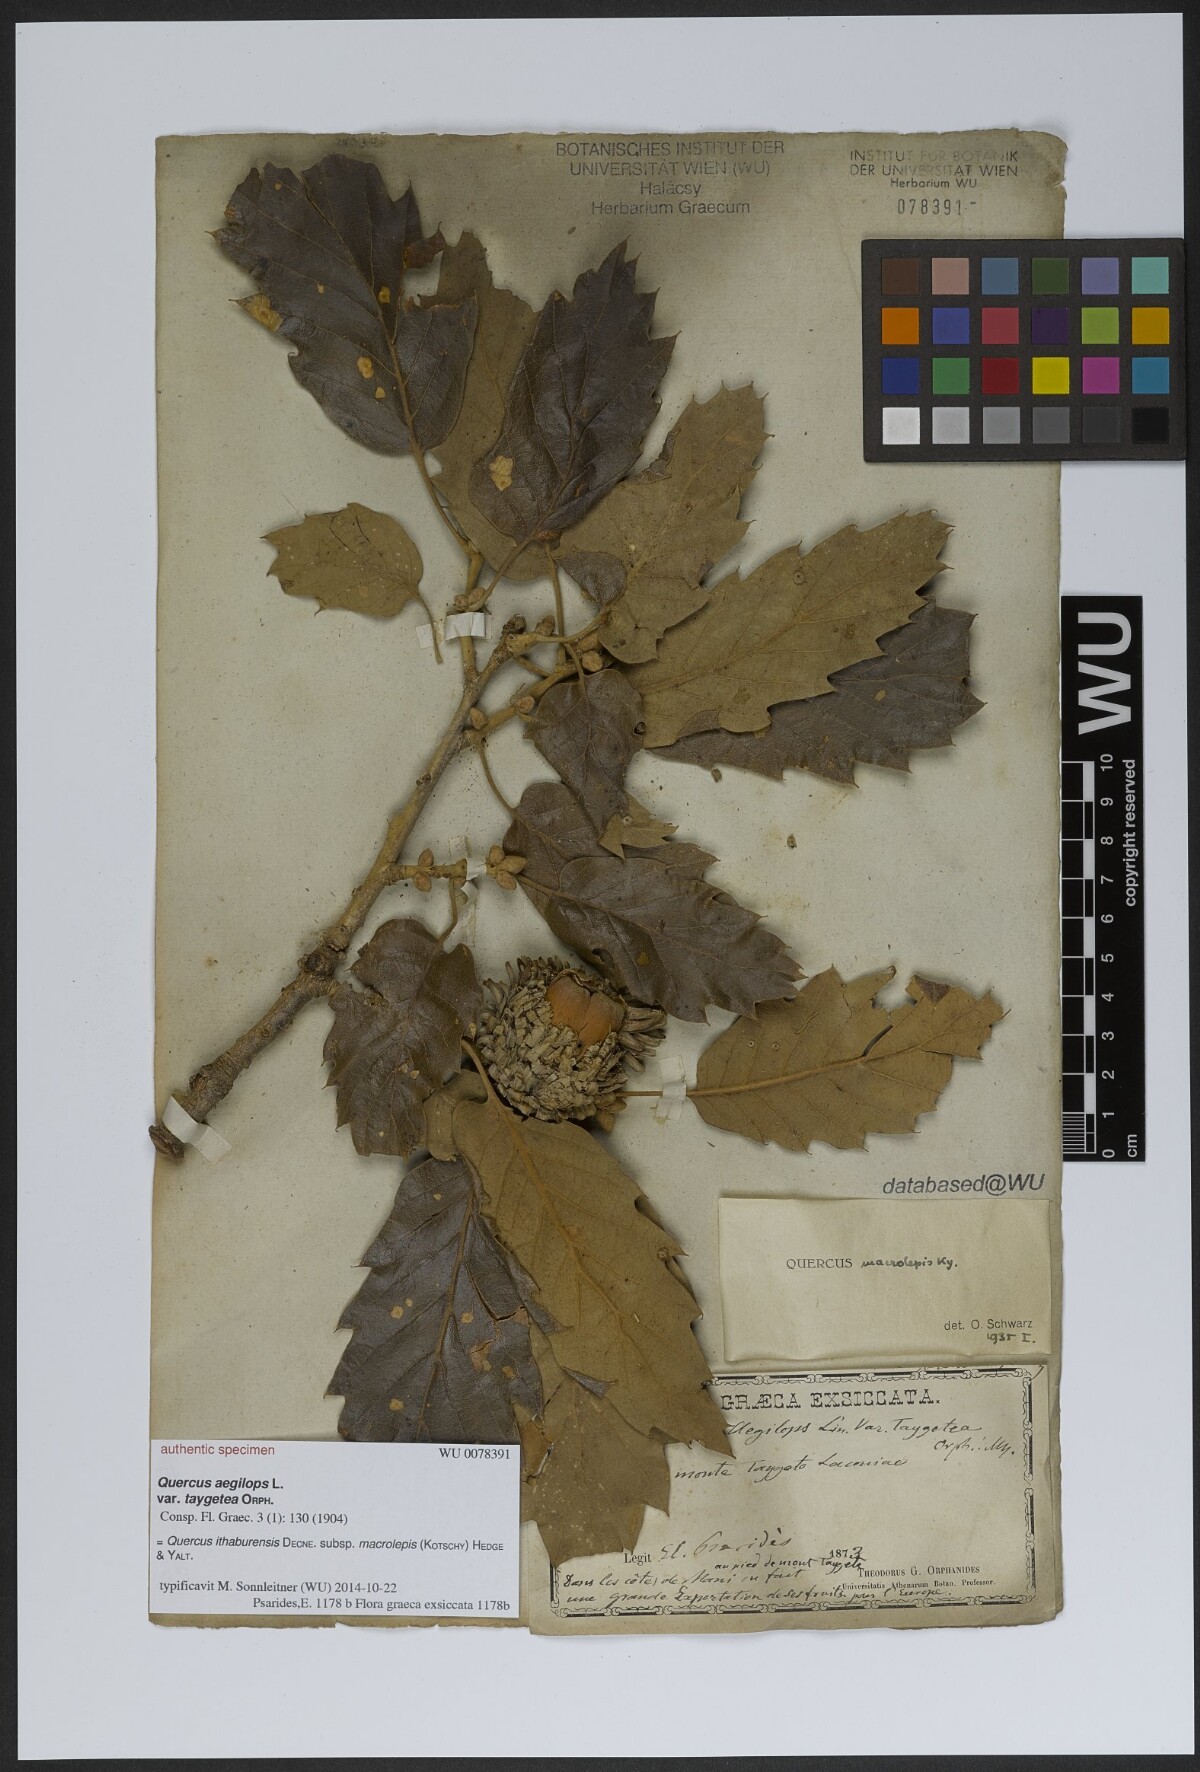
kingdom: Plantae
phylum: Tracheophyta
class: Magnoliopsida
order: Fagales
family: Fagaceae
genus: Quercus
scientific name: Quercus ithaburensis
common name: Tabor oak
